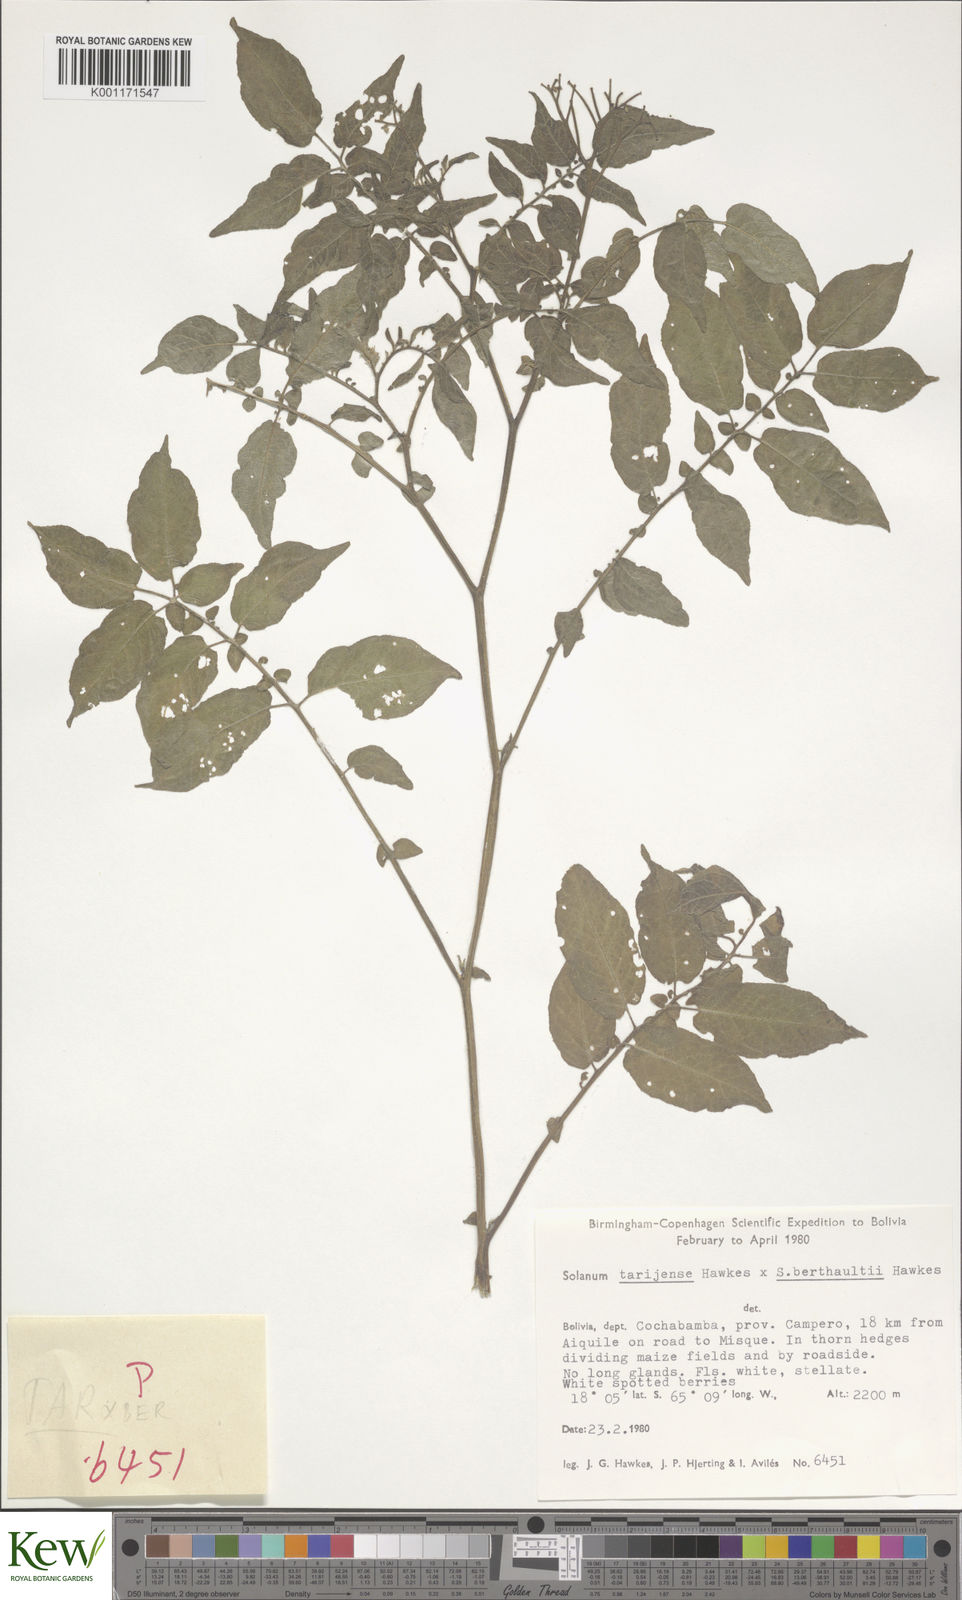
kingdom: Plantae
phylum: Tracheophyta
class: Magnoliopsida
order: Solanales
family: Solanaceae
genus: Solanum
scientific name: Solanum tarijense
